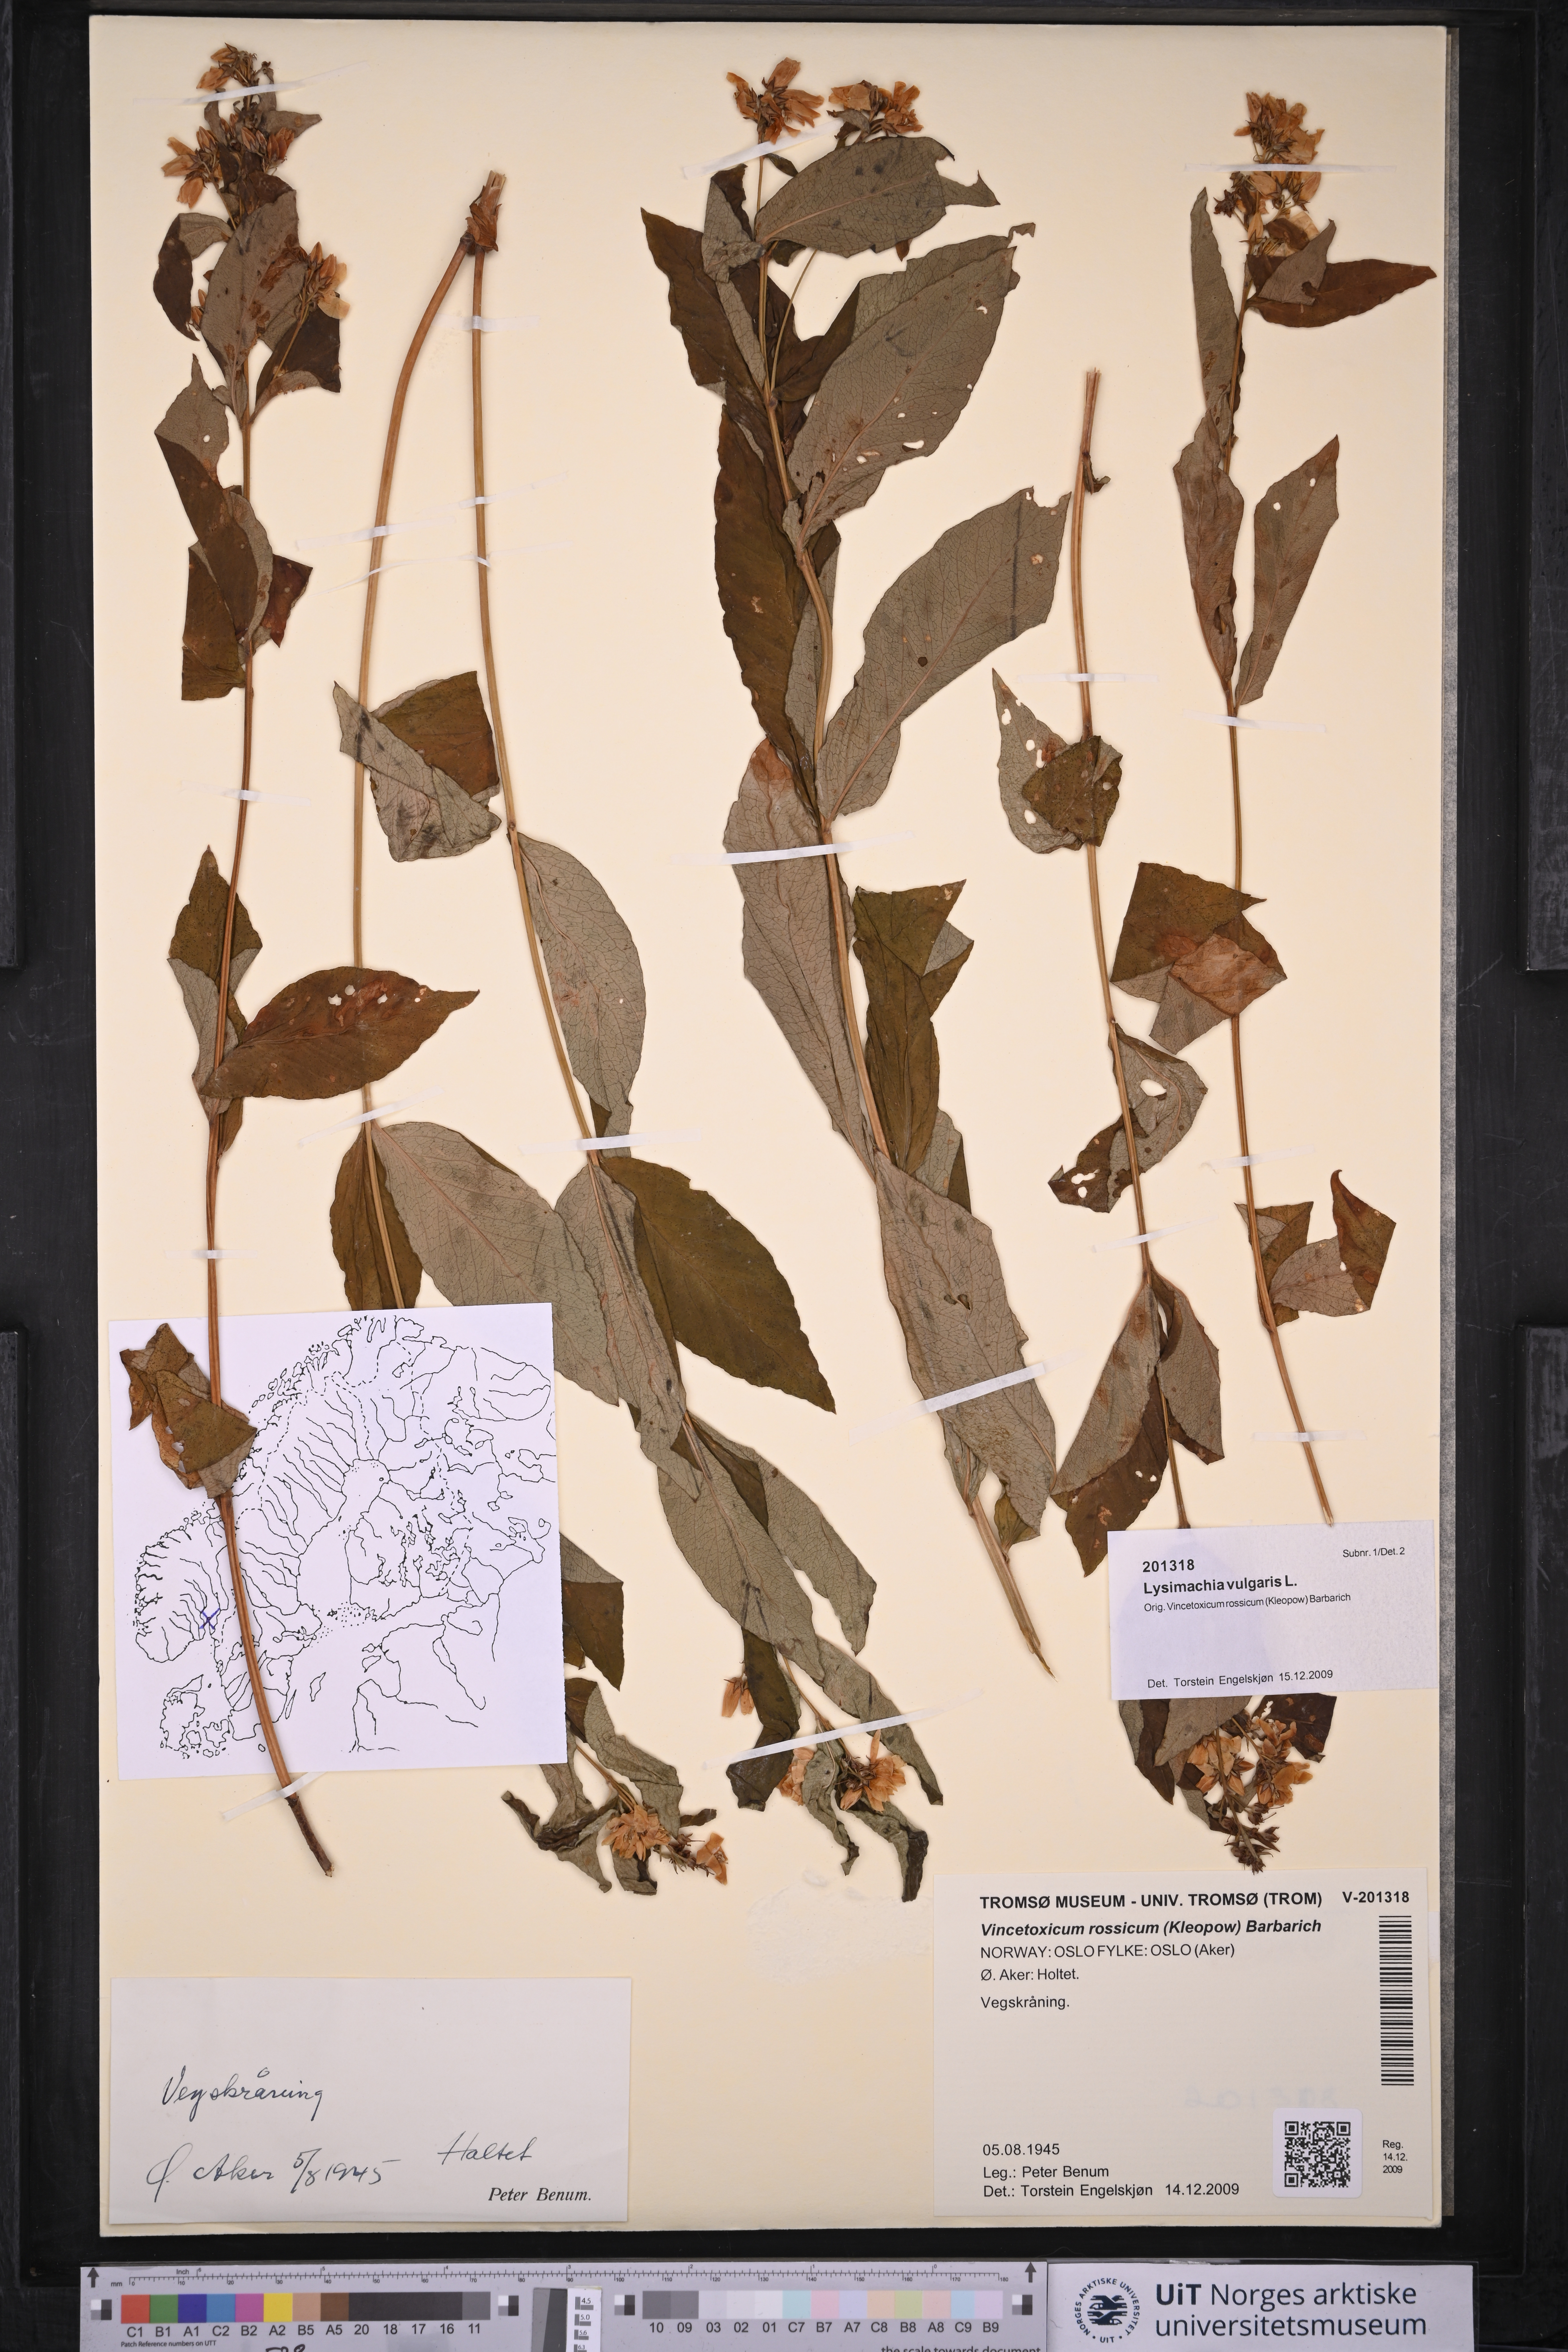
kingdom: Plantae
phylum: Tracheophyta
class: Magnoliopsida
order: Ericales
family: Primulaceae
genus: Lysimachia
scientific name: Lysimachia vulgaris
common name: Yellow loosestrife
